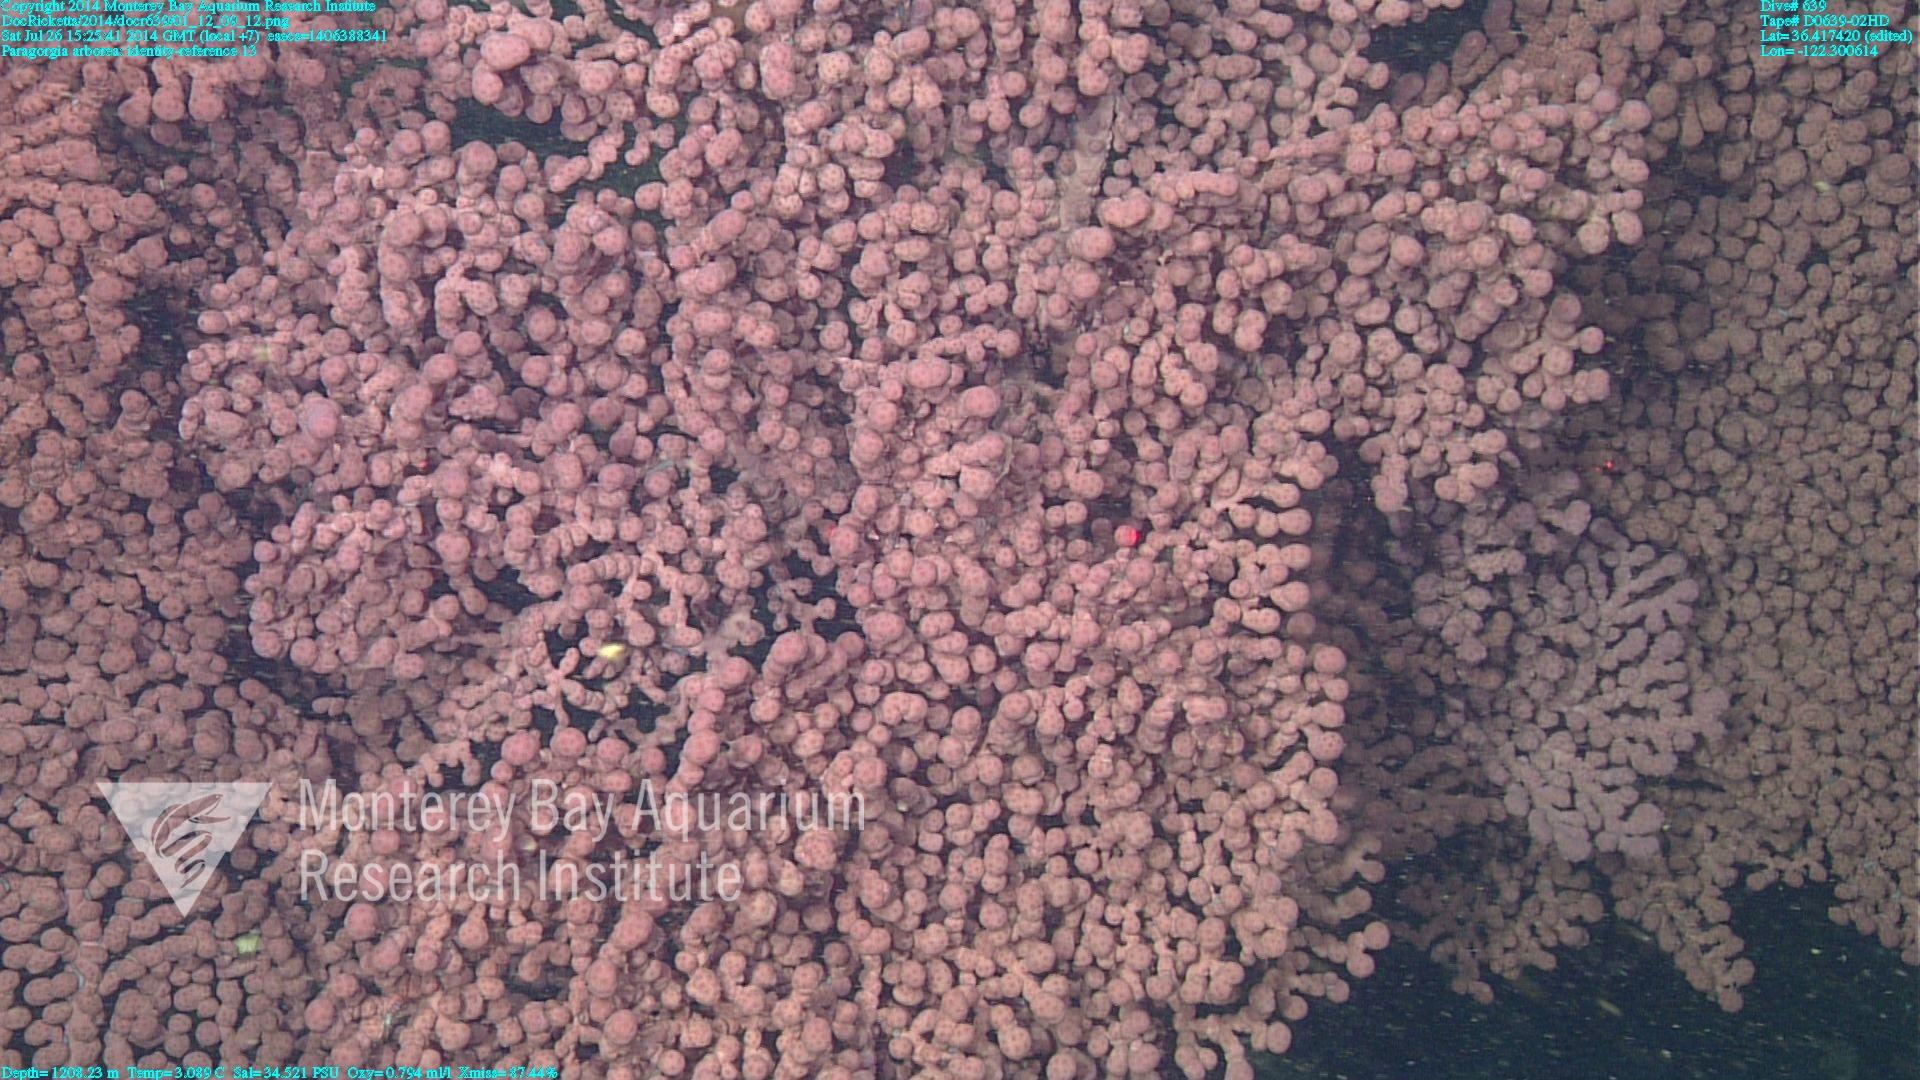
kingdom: Animalia
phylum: Cnidaria
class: Anthozoa
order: Scleralcyonacea
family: Coralliidae
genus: Paragorgia
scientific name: Paragorgia arborea
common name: Bubble gum coral
